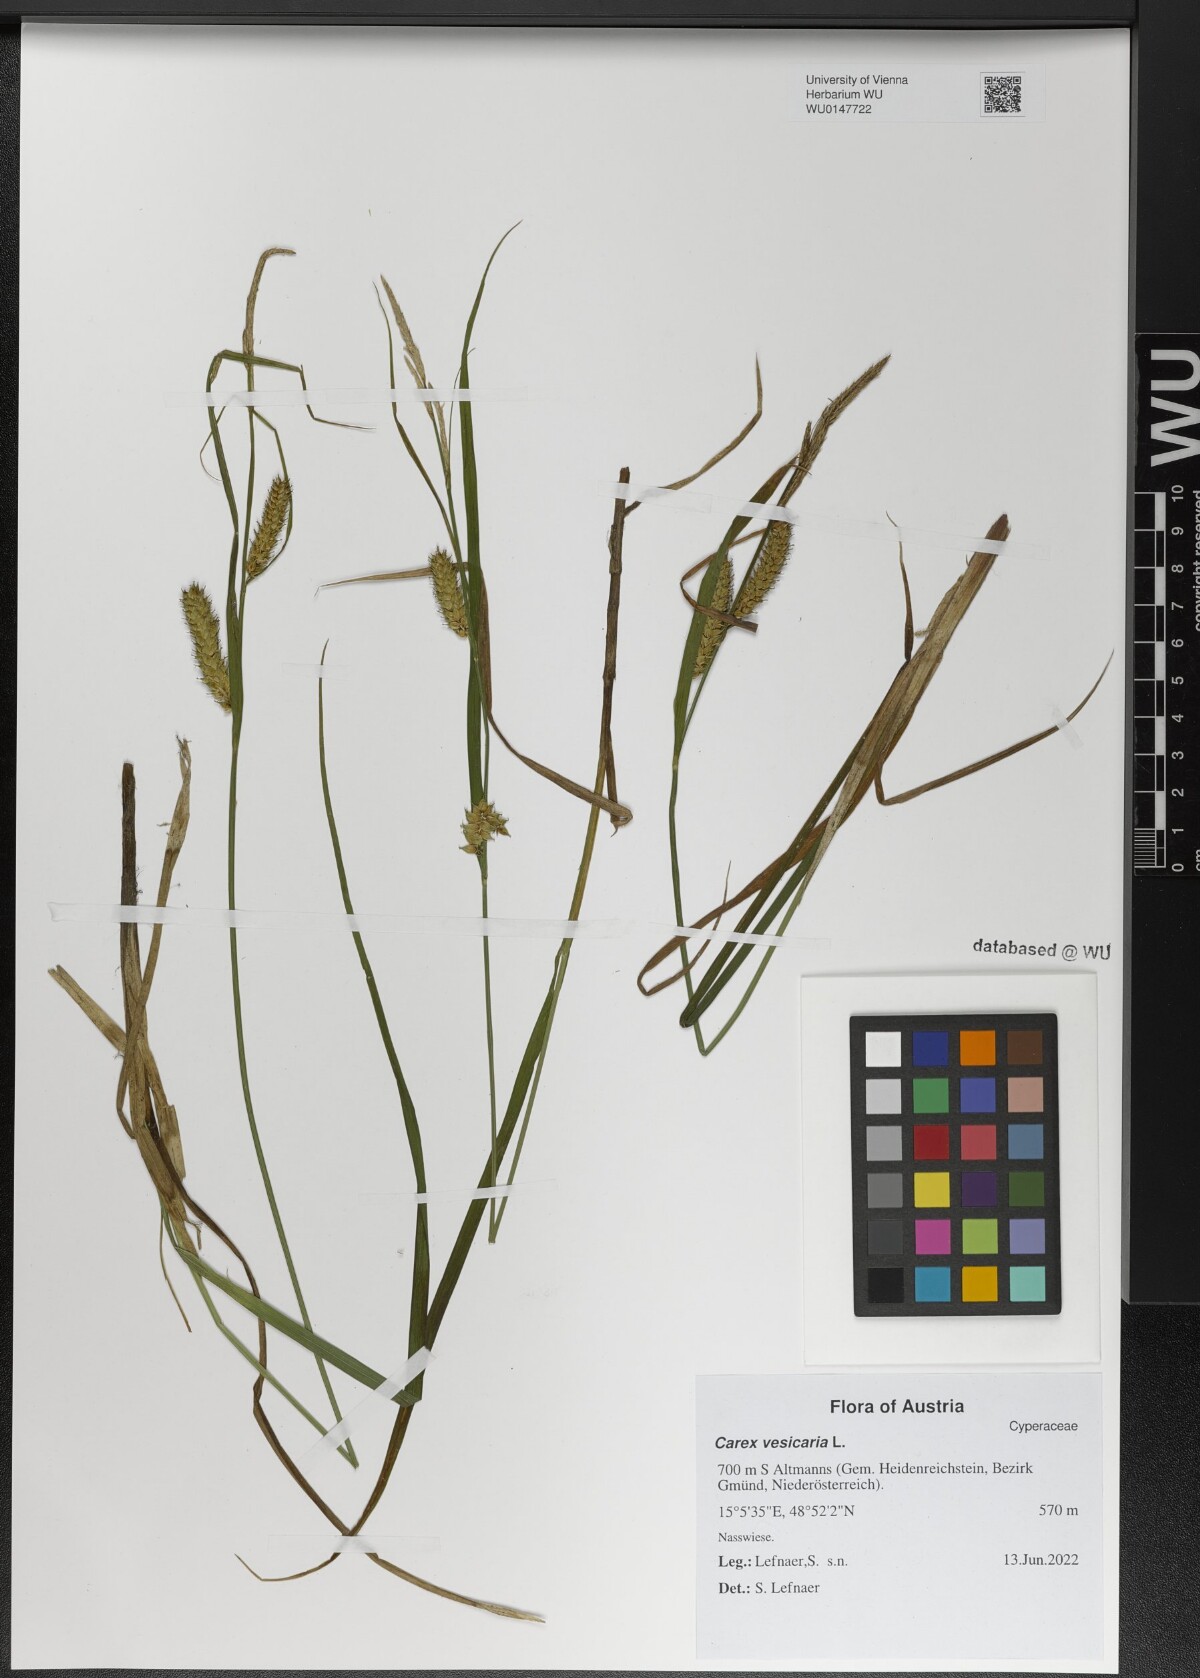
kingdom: Plantae
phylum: Tracheophyta
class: Liliopsida
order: Poales
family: Cyperaceae
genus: Carex
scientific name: Carex vesicaria
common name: Bladder-sedge
